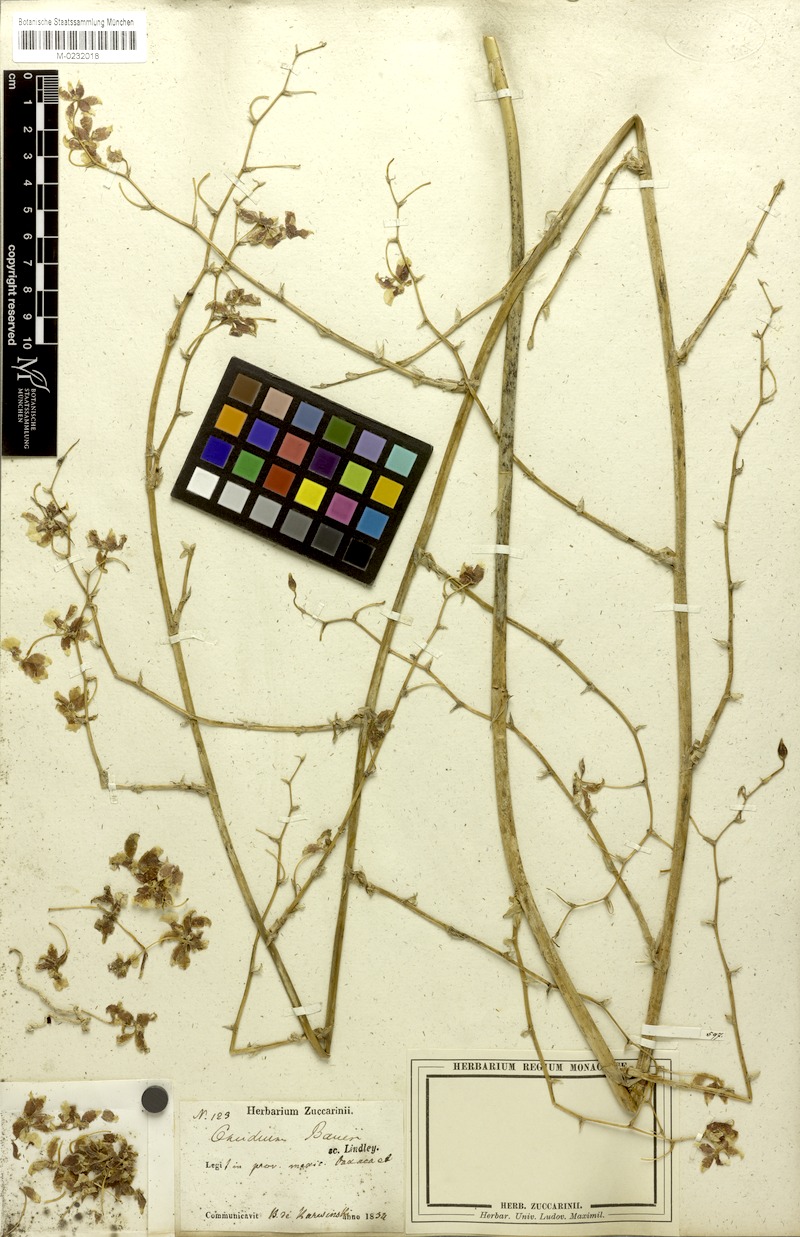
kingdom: Plantae
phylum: Tracheophyta
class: Liliopsida
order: Asparagales
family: Orchidaceae
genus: Oncidium
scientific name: Oncidium baueri
